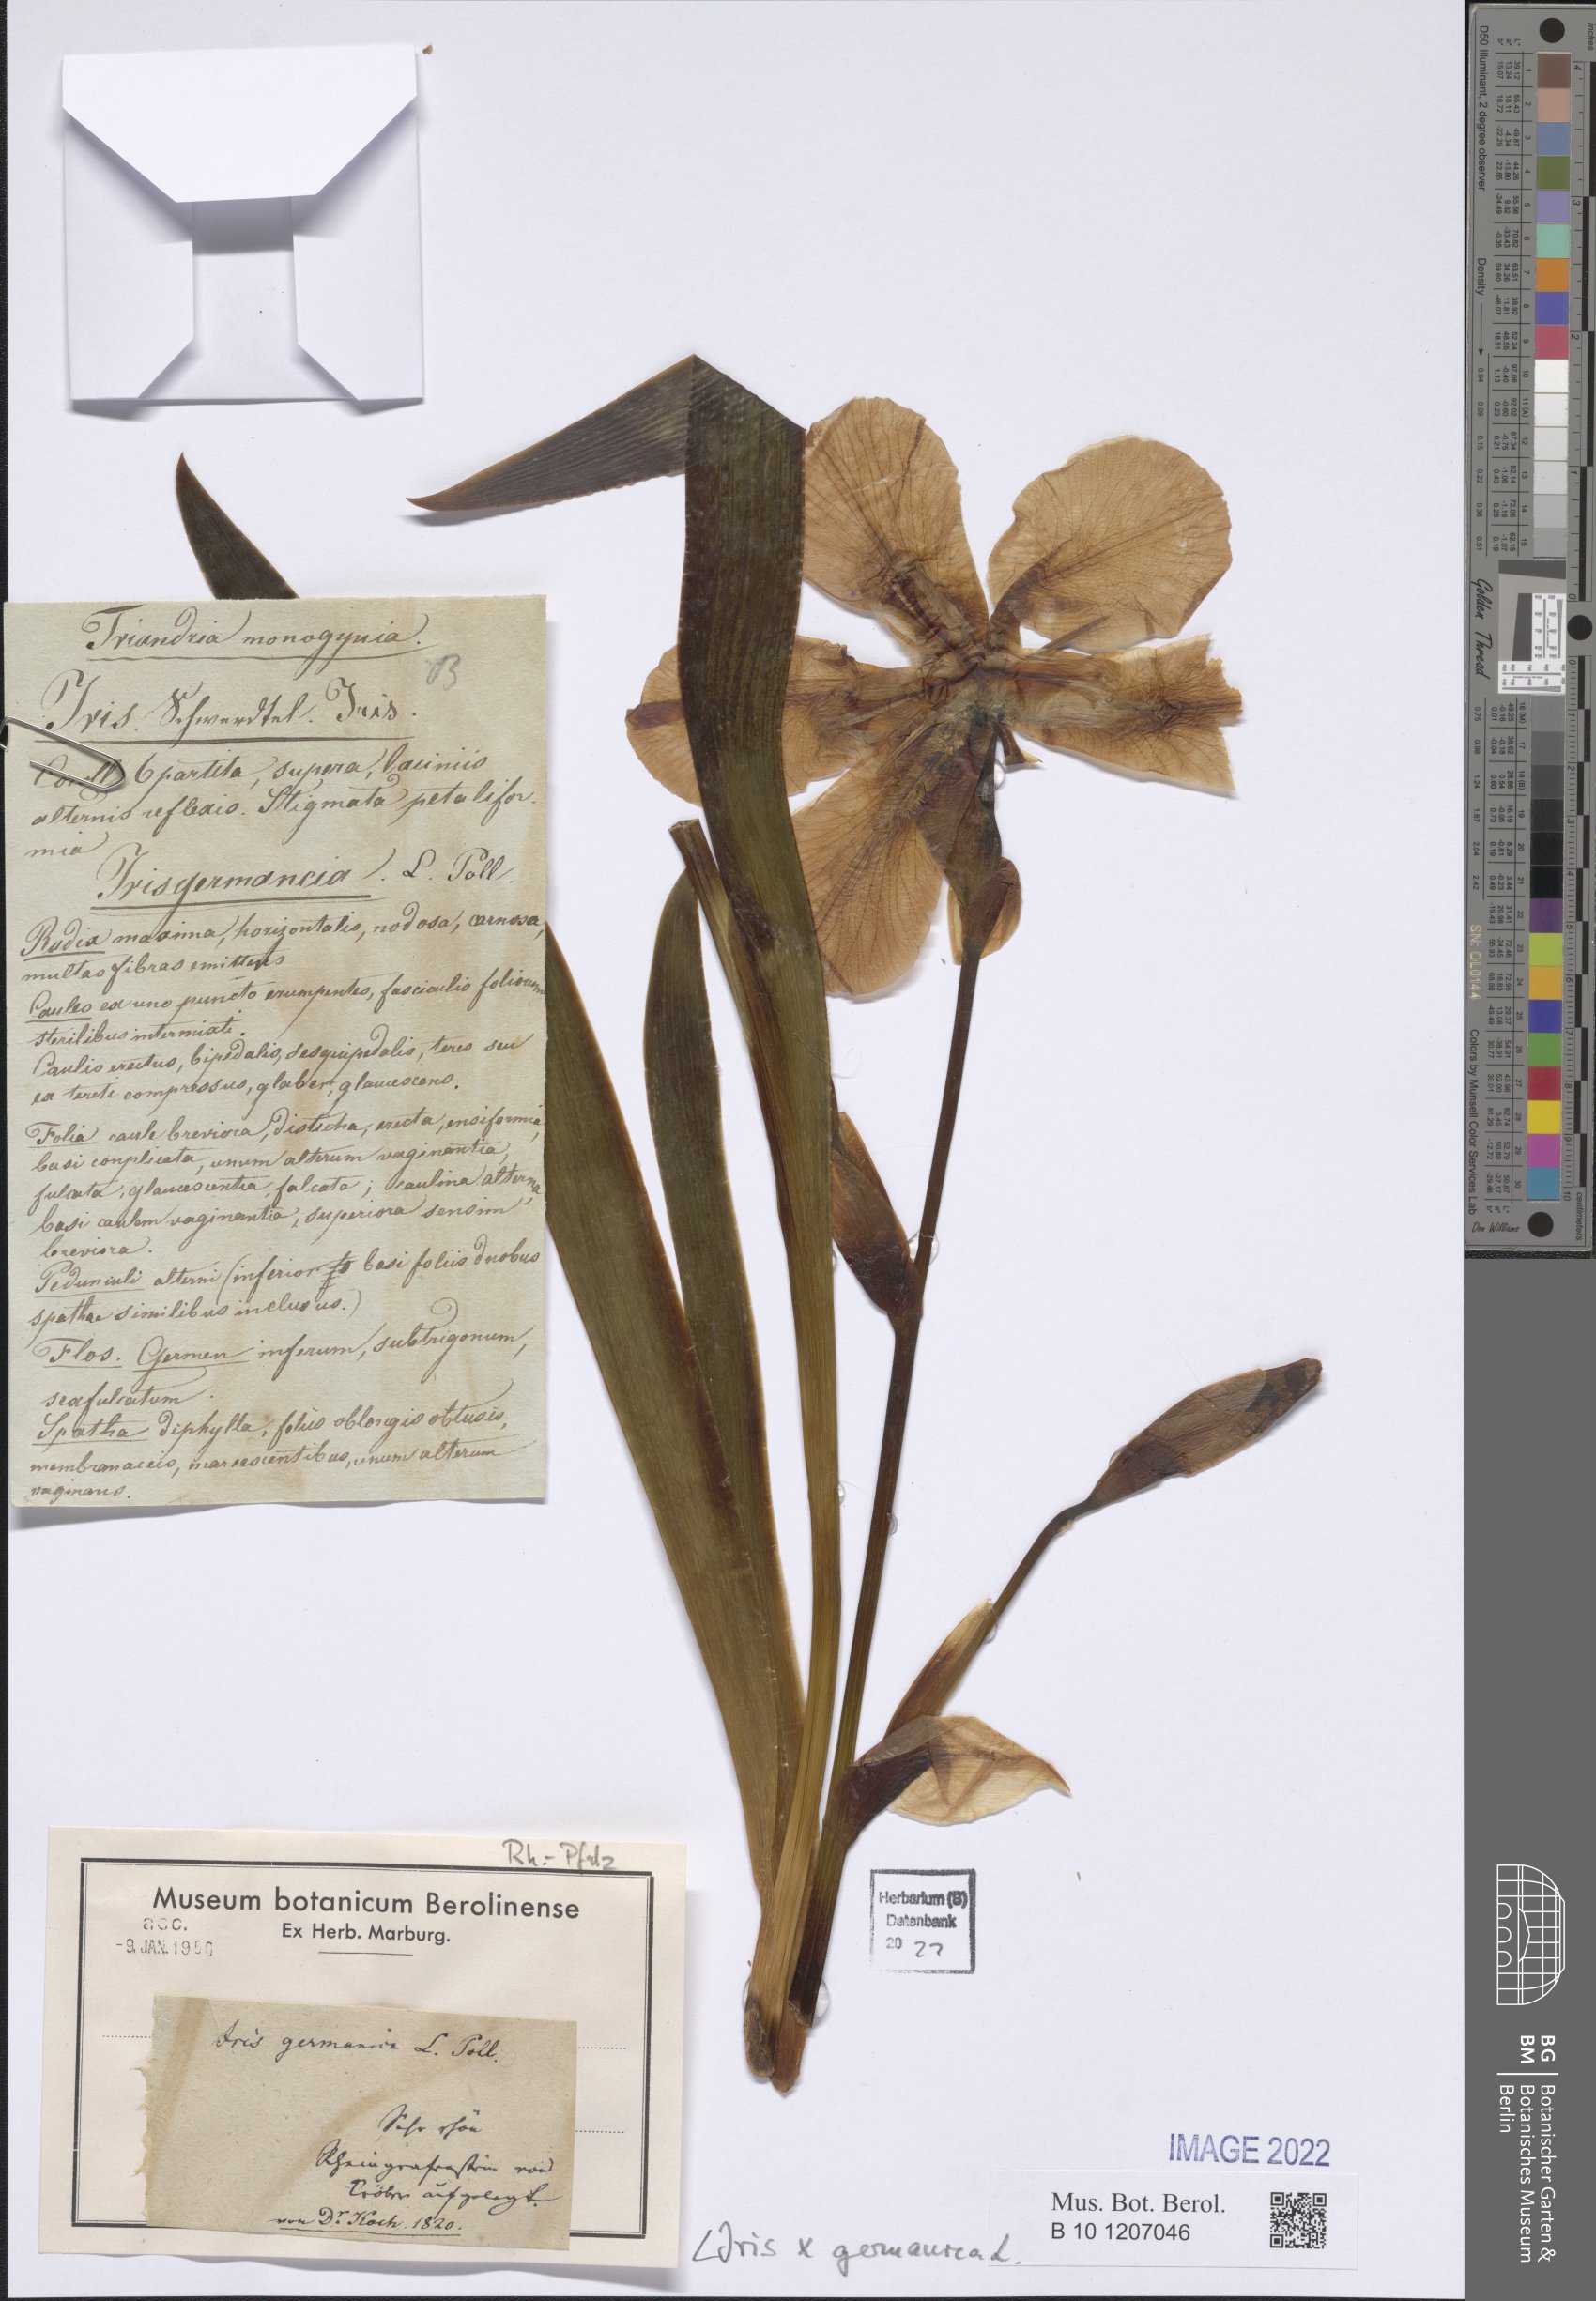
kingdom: Plantae
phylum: Tracheophyta
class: Liliopsida
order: Asparagales
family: Iridaceae
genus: Iris
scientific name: Iris germanica
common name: German iris
